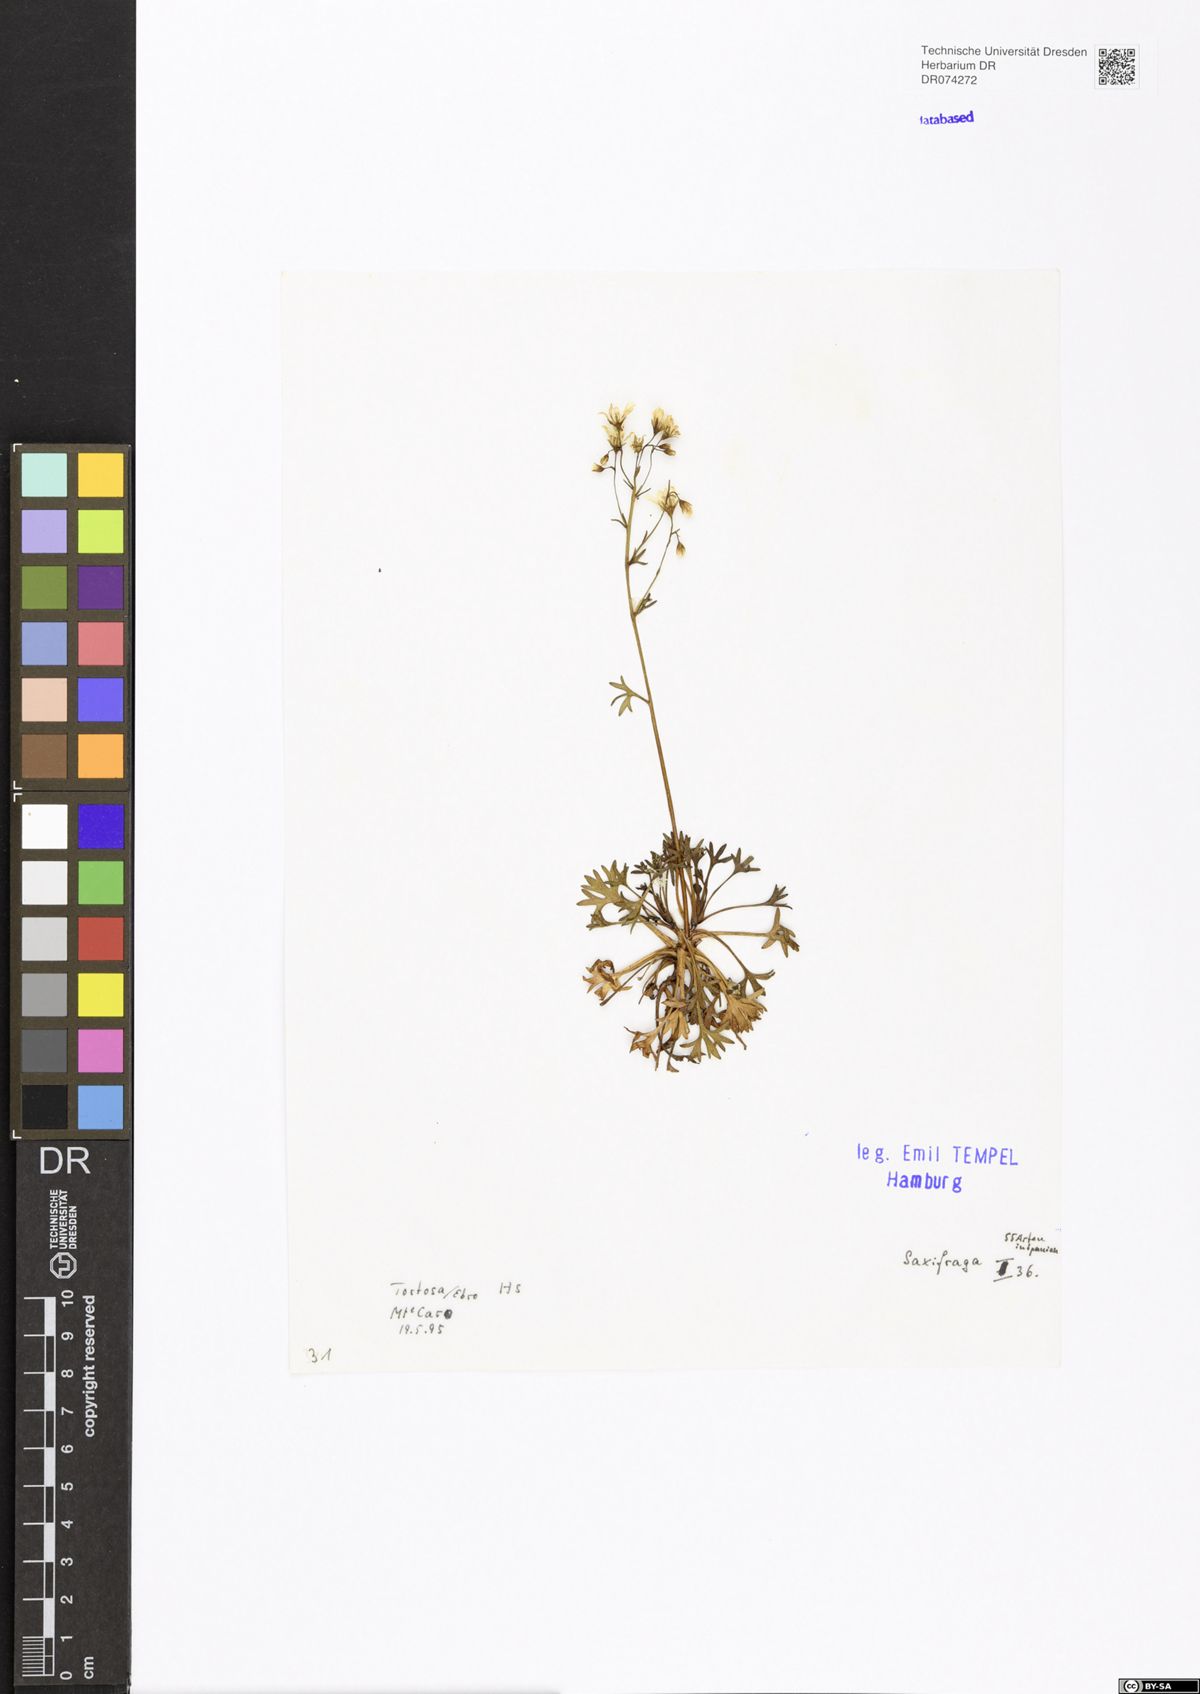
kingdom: Plantae
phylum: Tracheophyta
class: Magnoliopsida
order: Saxifragales
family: Saxifragaceae
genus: Saxifraga
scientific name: Saxifraga
